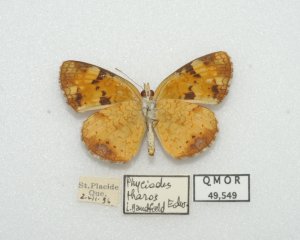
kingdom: Animalia
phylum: Arthropoda
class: Insecta
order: Lepidoptera
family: Nymphalidae
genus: Phyciodes
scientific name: Phyciodes tharos
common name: Northern Crescent
